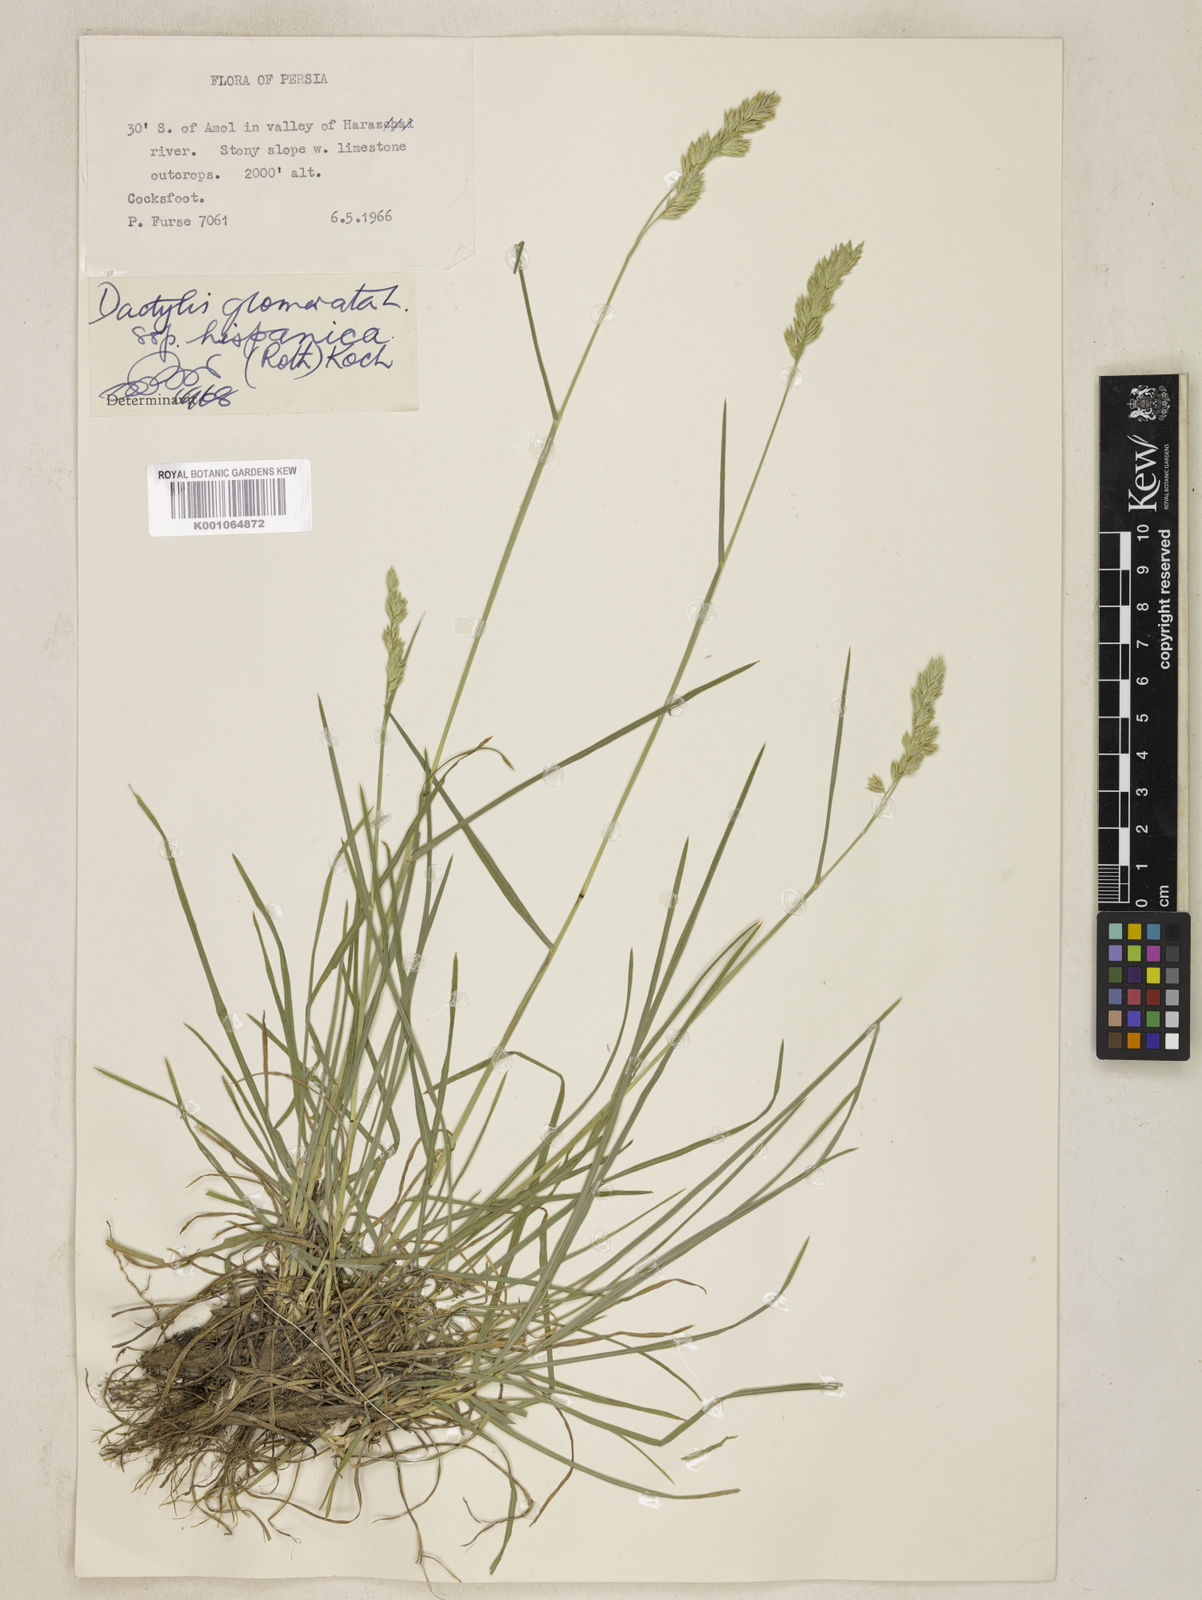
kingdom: Plantae
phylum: Tracheophyta
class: Liliopsida
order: Poales
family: Poaceae
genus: Dactylis
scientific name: Dactylis glomerata
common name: Orchardgrass
